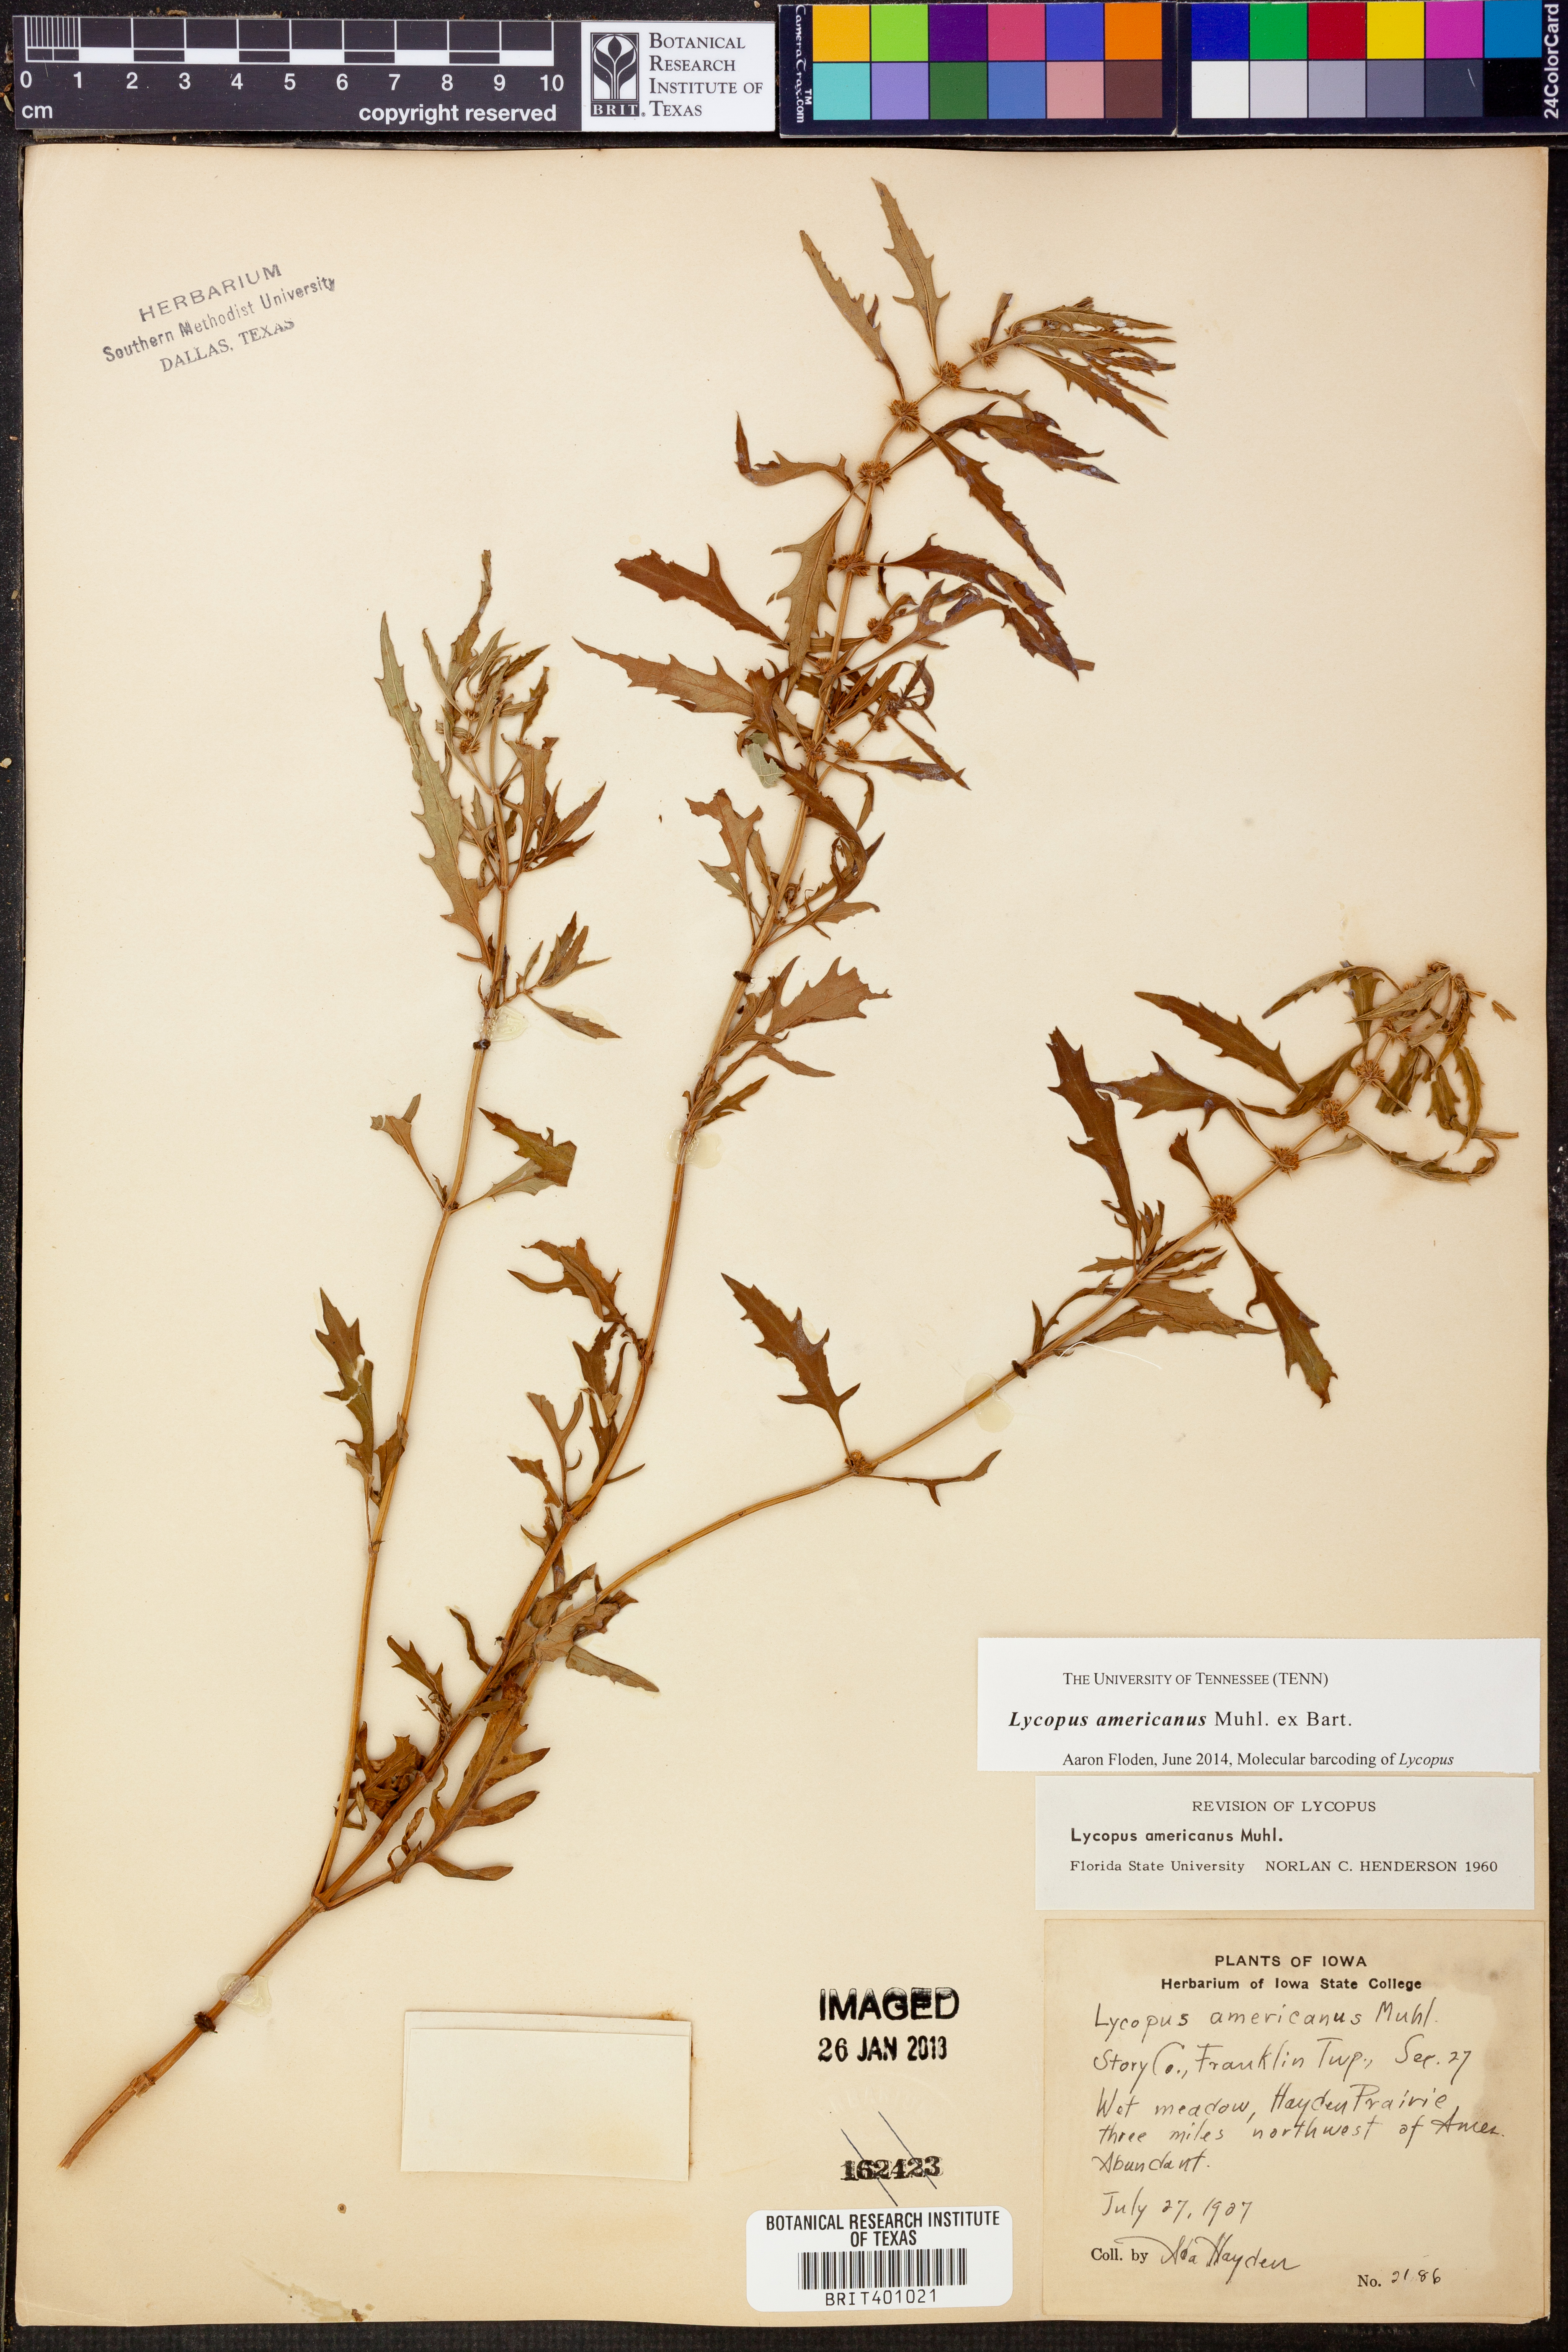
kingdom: Plantae
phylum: Tracheophyta
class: Magnoliopsida
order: Lamiales
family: Lamiaceae
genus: Lycopus
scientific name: Lycopus americanus
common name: American bugleweed
